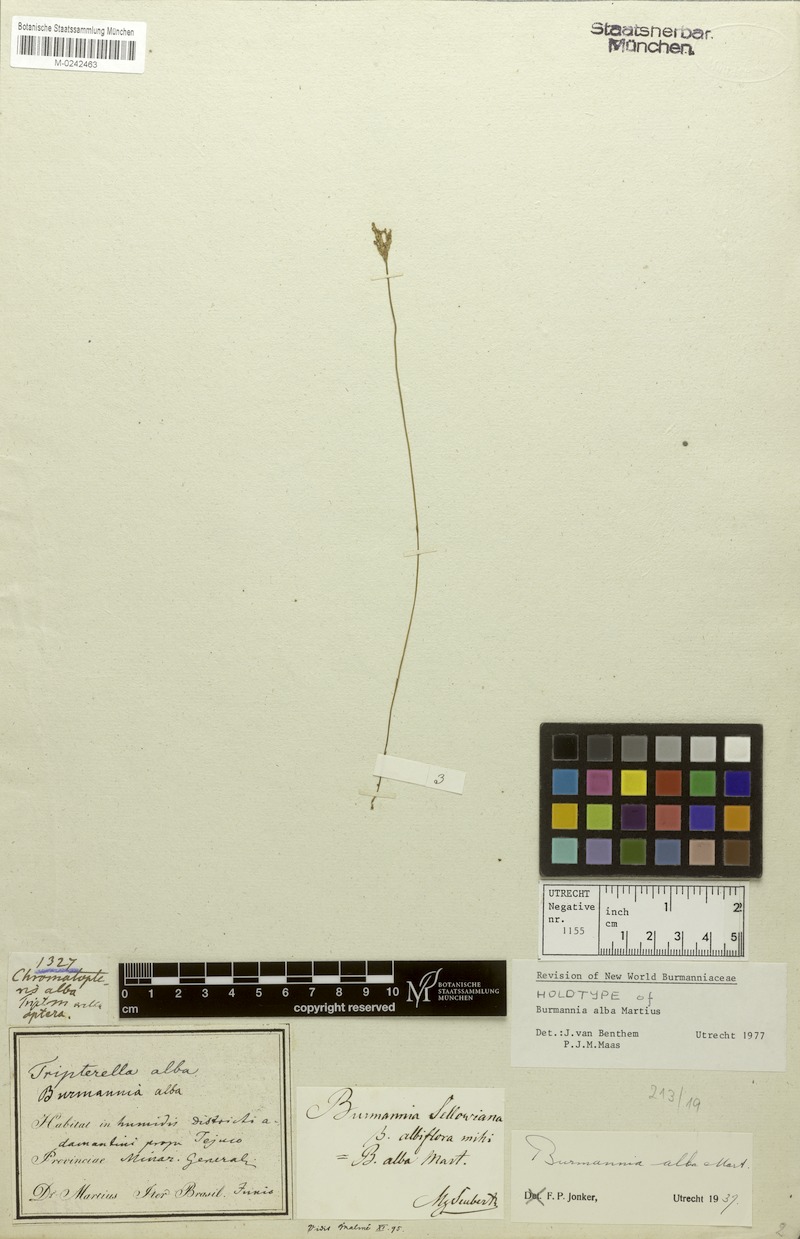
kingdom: Plantae
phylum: Tracheophyta
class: Liliopsida
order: Dioscoreales
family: Burmanniaceae
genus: Burmannia
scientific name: Burmannia alba
